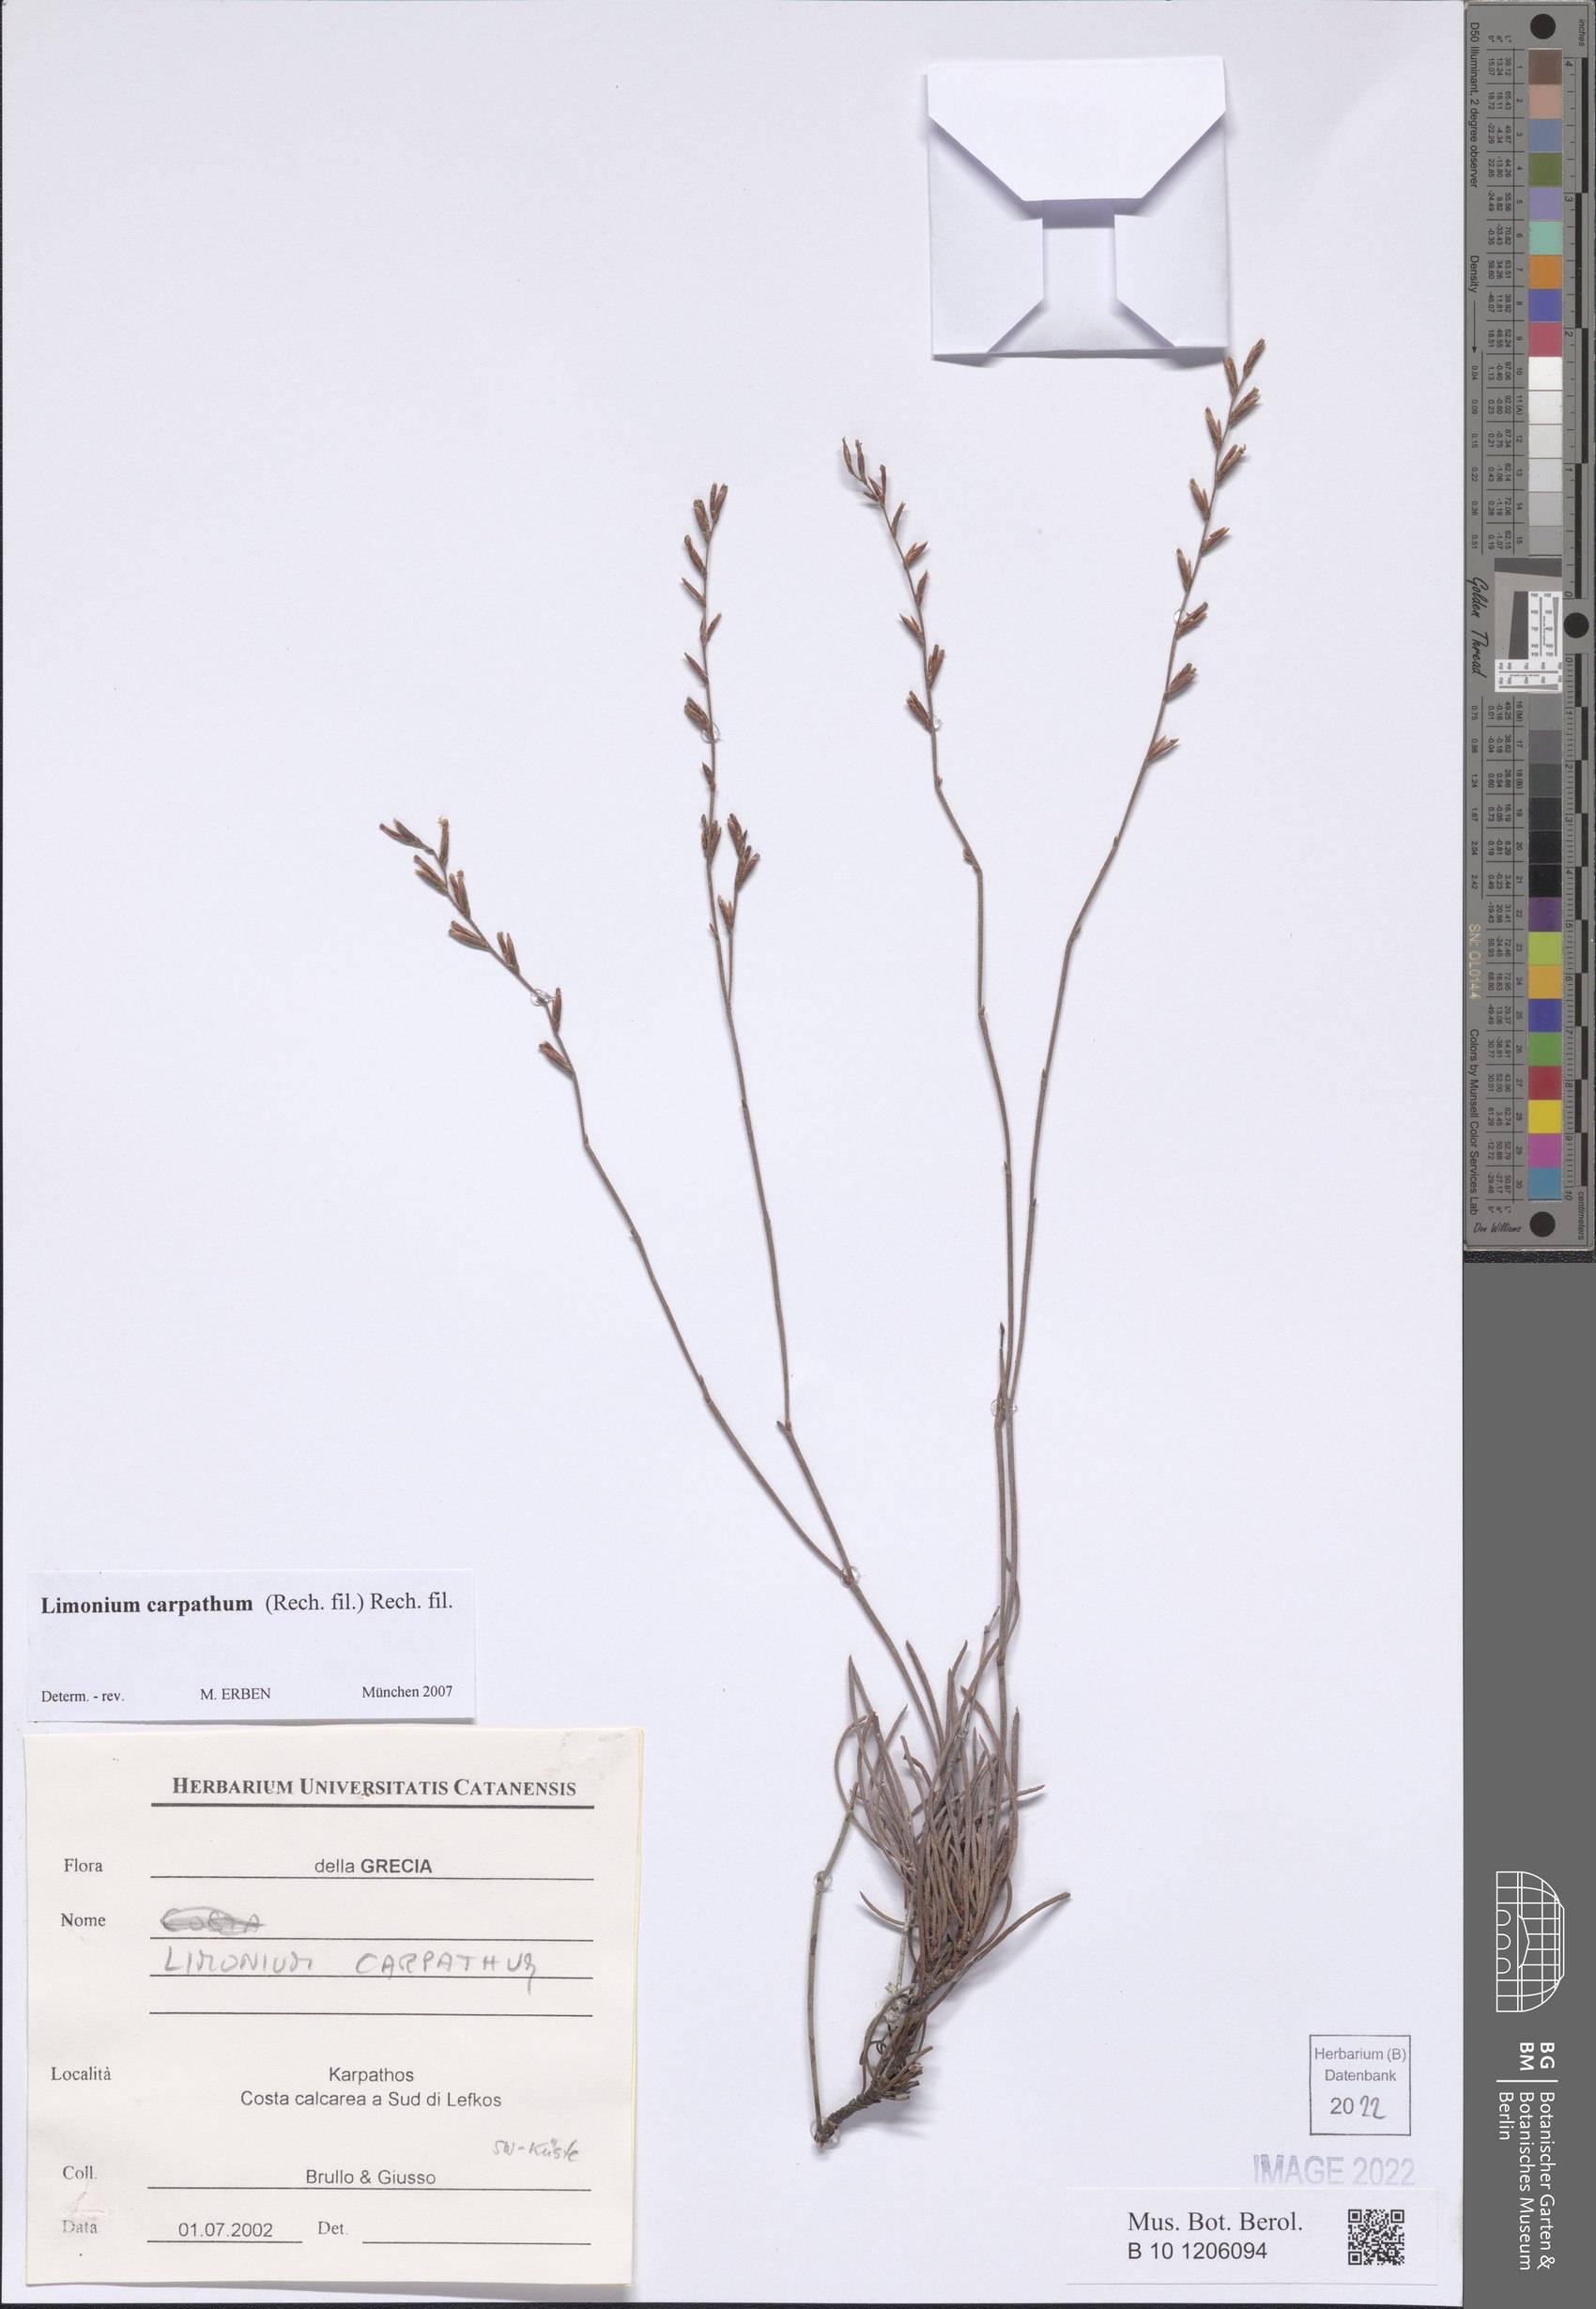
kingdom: Plantae
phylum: Tracheophyta
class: Magnoliopsida
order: Caryophyllales
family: Plumbaginaceae
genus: Limonium
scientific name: Limonium carpathum
